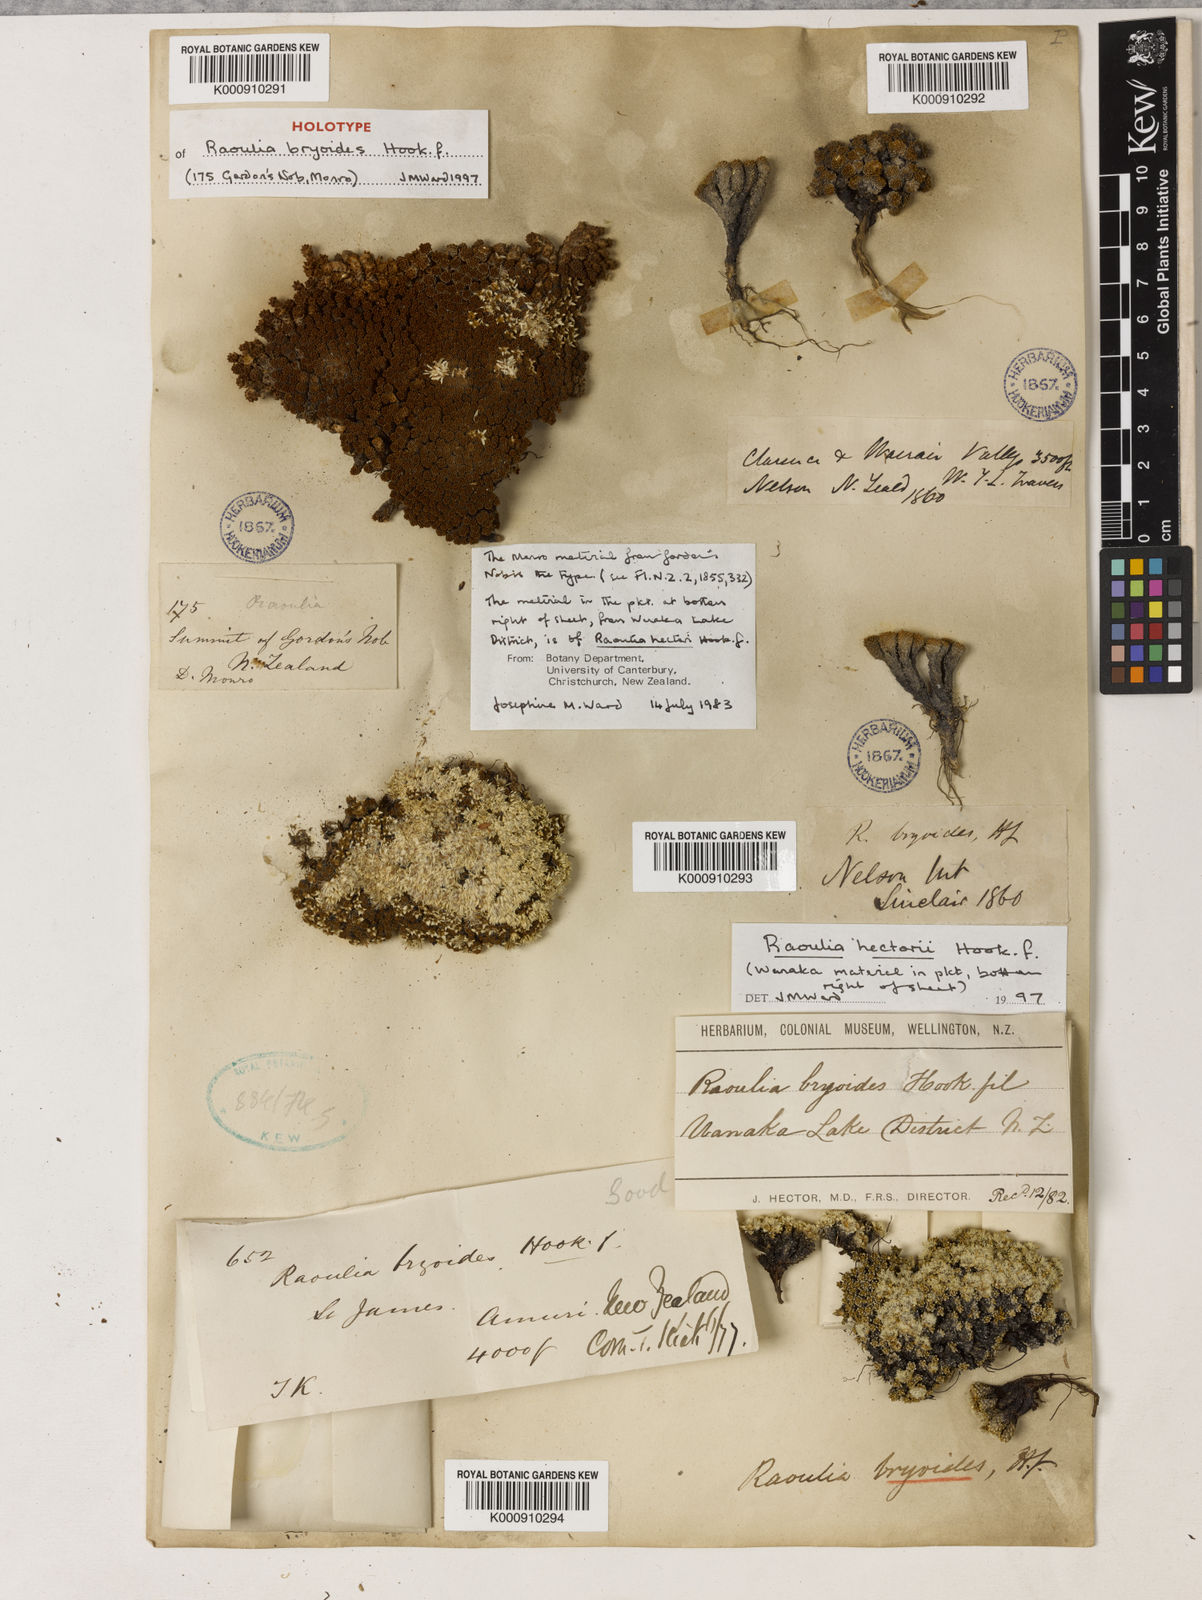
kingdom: Plantae
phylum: Tracheophyta
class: Magnoliopsida
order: Asterales
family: Asteraceae
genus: Raoulia
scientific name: Raoulia bryoides
